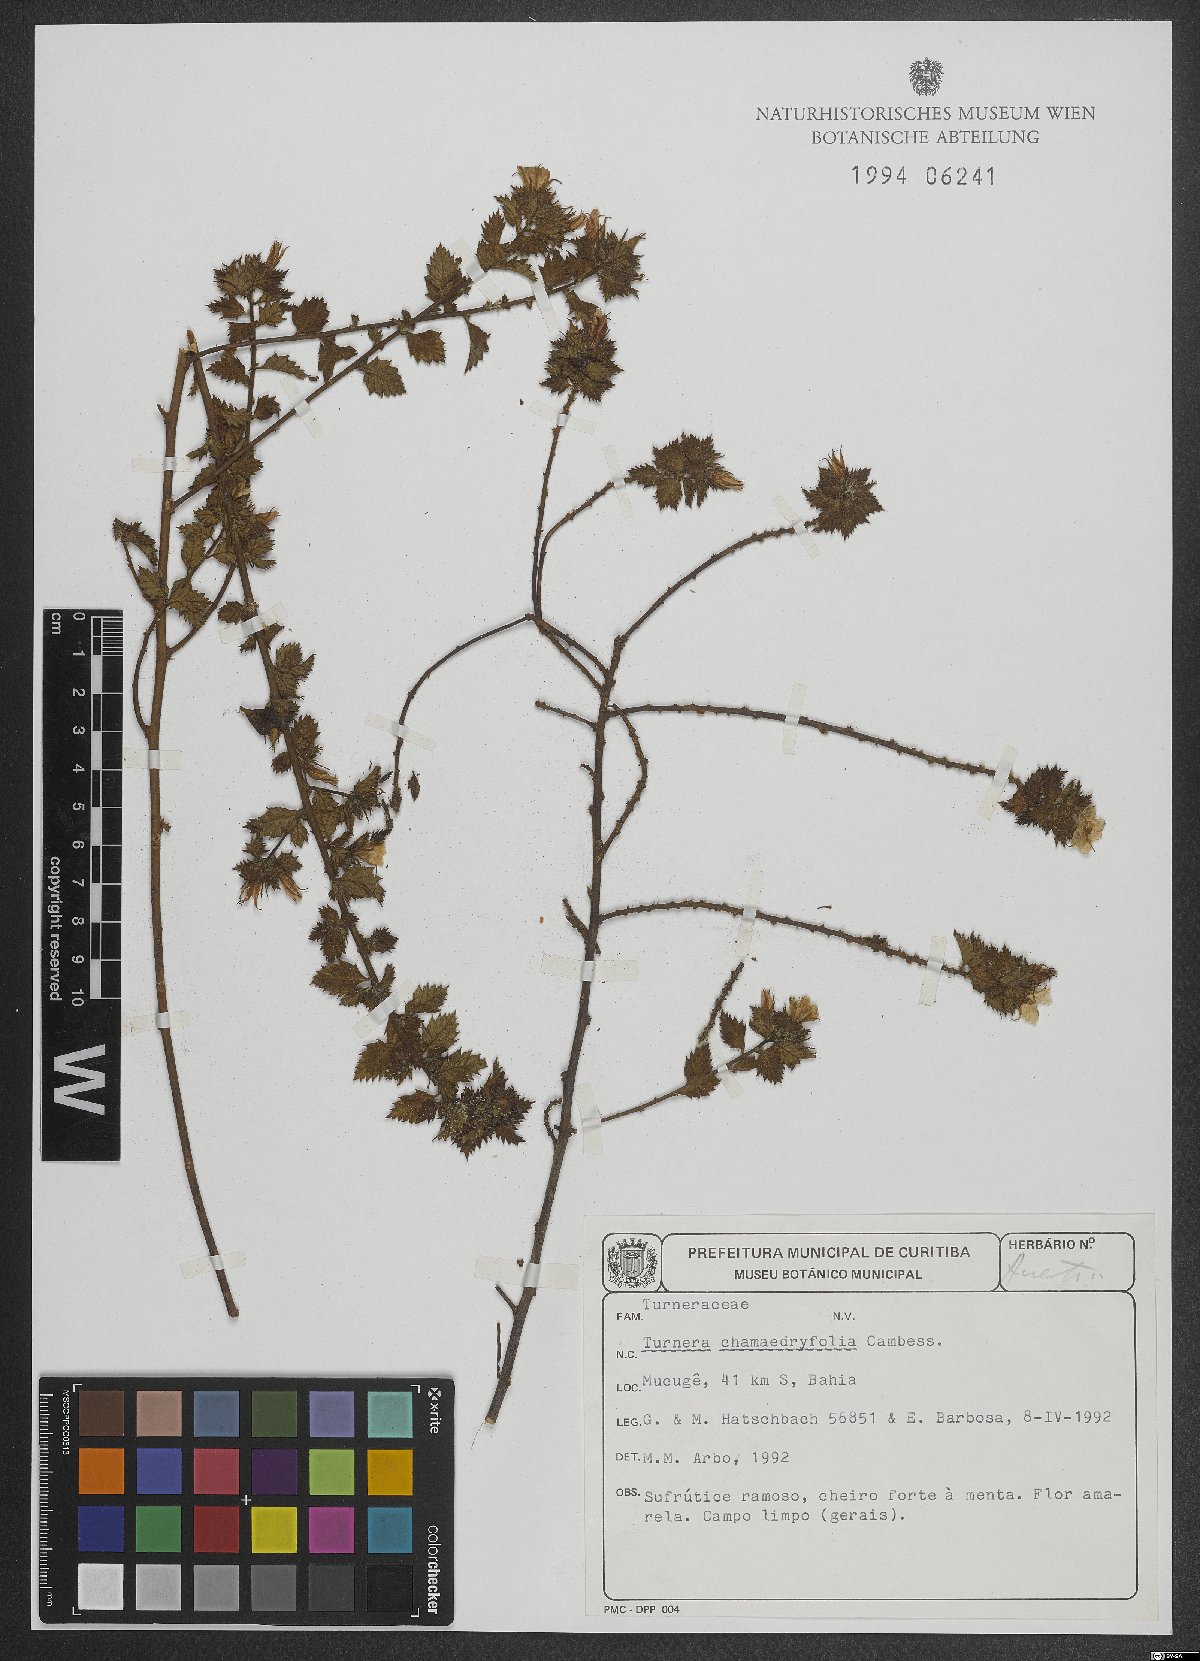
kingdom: Plantae
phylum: Tracheophyta
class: Magnoliopsida
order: Malpighiales
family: Turneraceae
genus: Turnera
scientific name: Turnera chamaedrifolia
